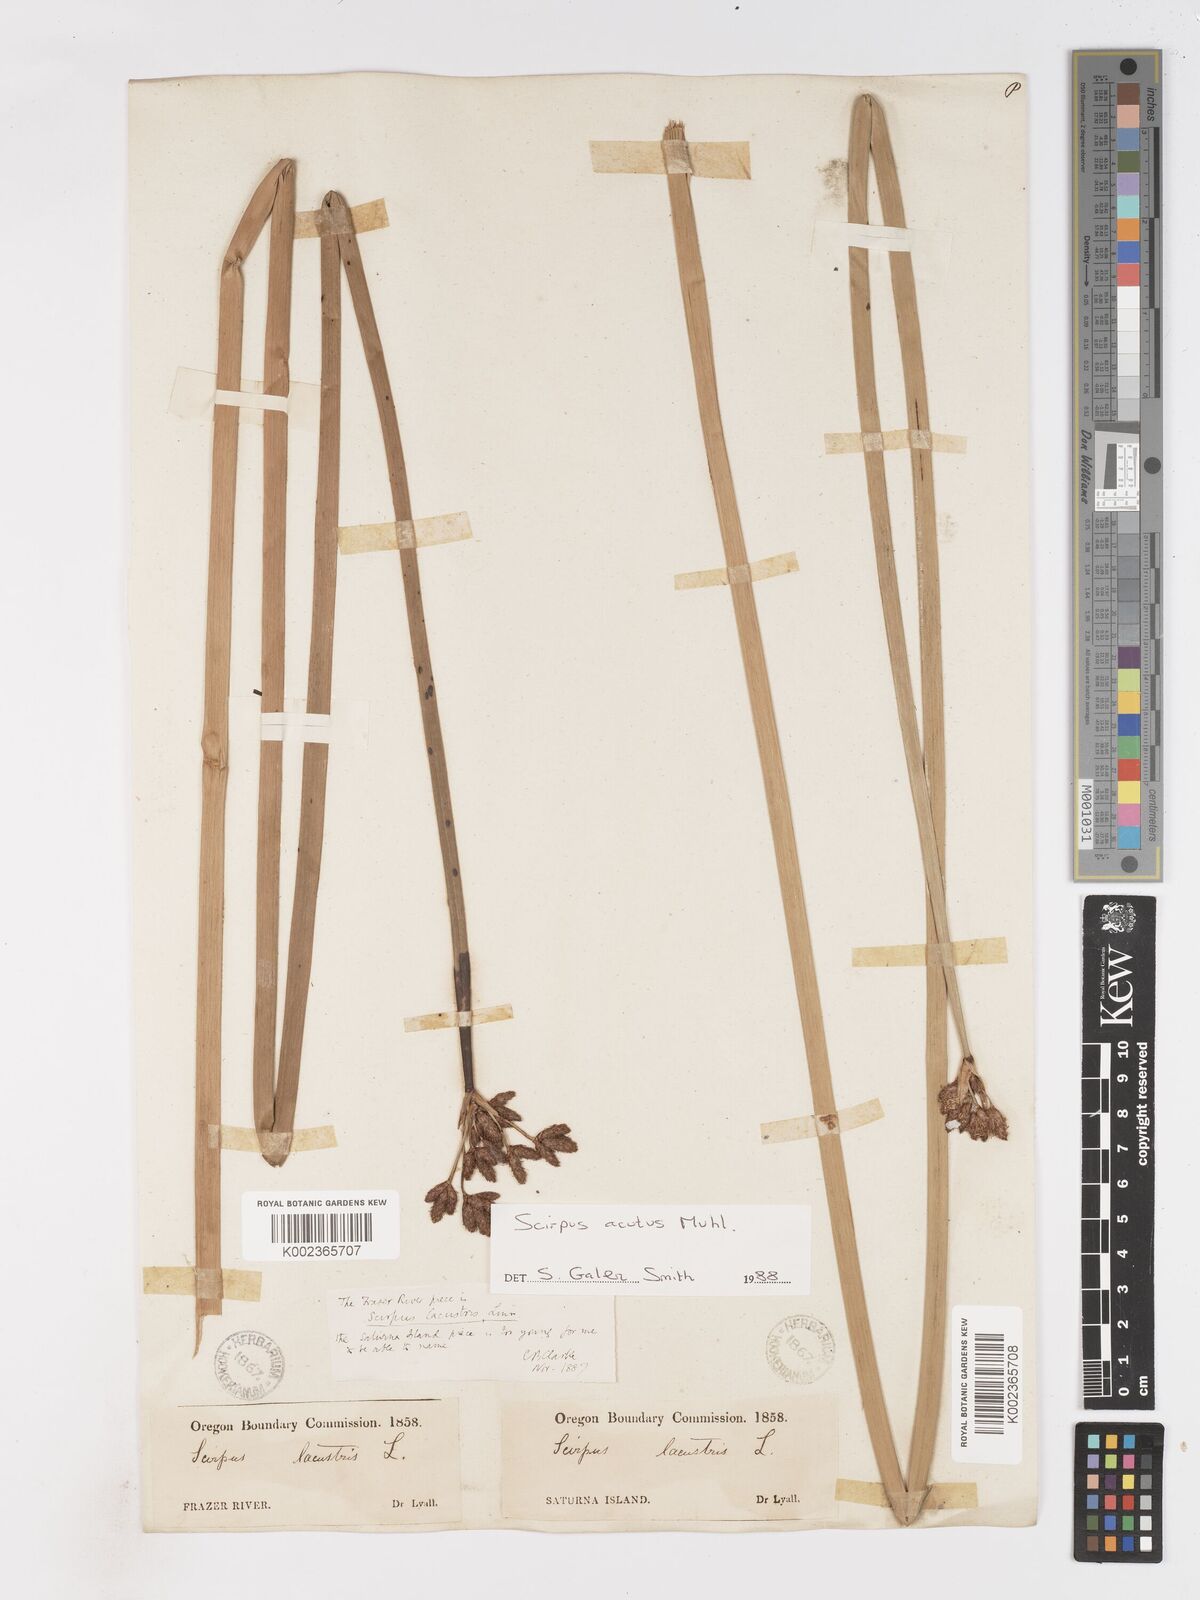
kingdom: Plantae
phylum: Tracheophyta
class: Liliopsida
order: Poales
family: Cyperaceae
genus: Schoenoplectus
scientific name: Schoenoplectus acutus
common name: Hardstem bulrush
